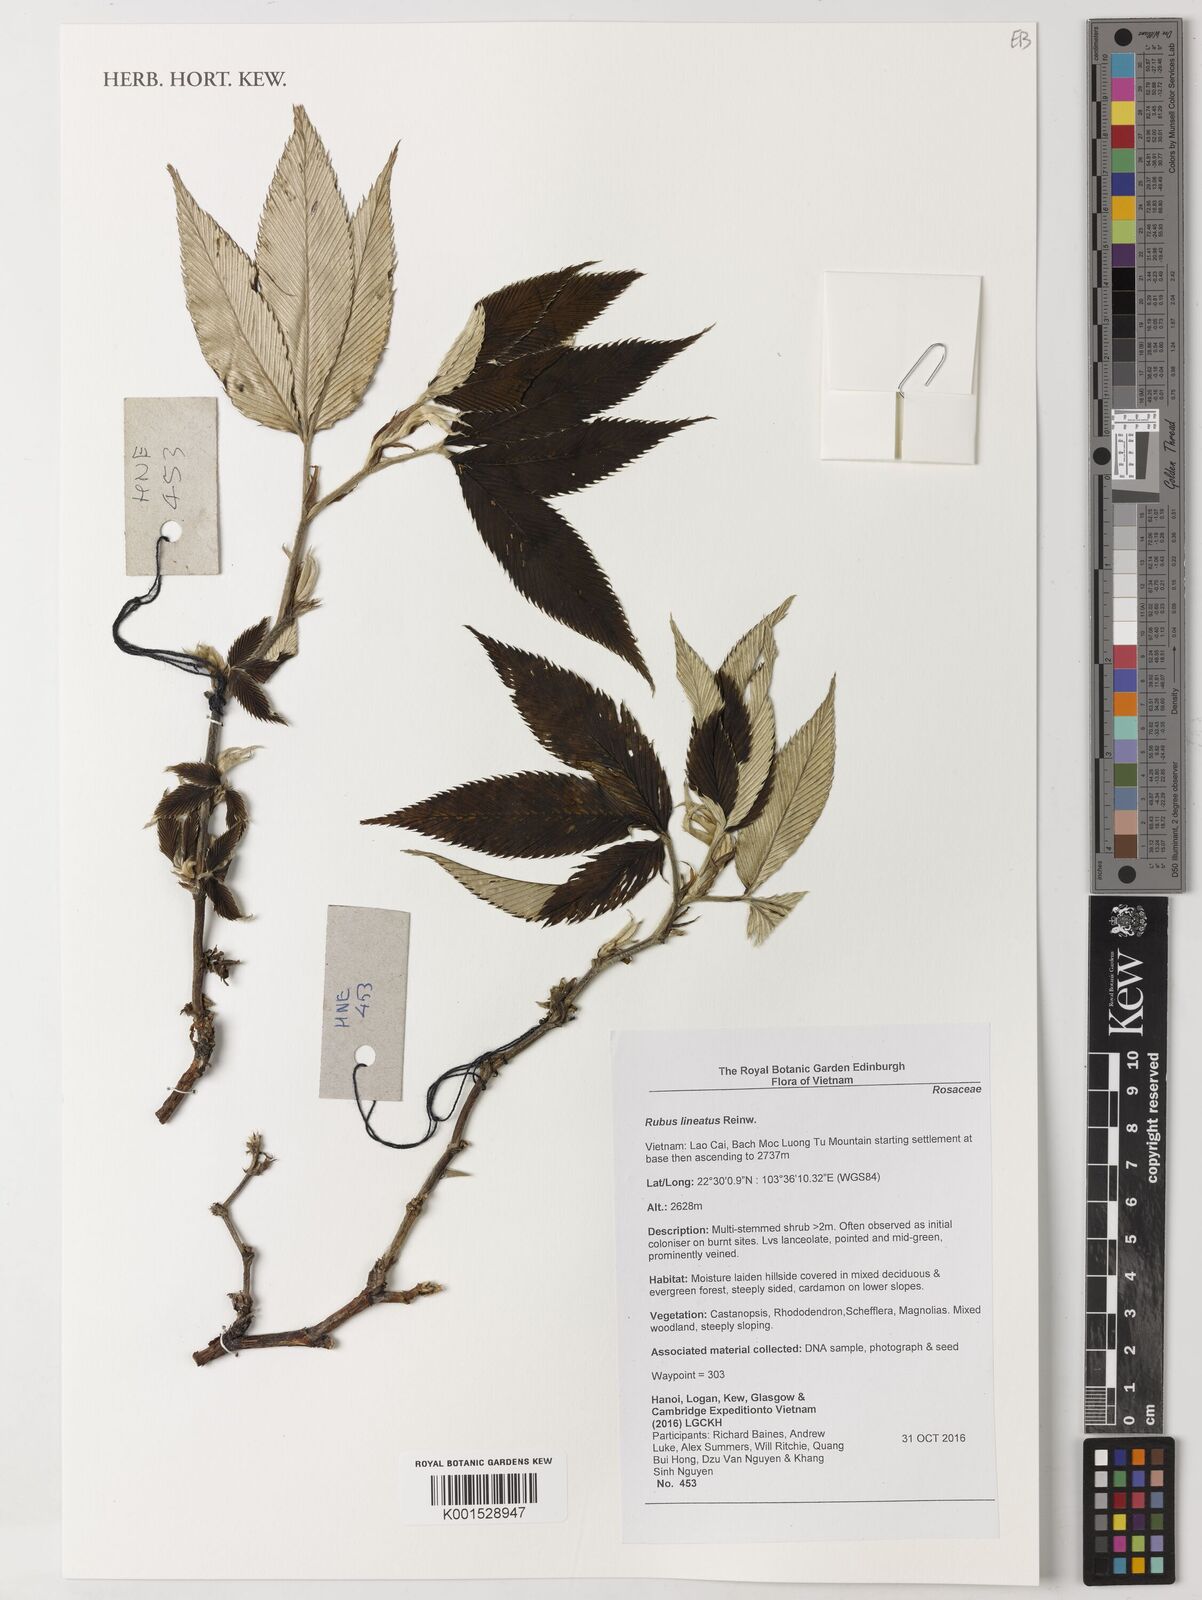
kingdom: Plantae
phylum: Tracheophyta
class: Magnoliopsida
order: Rosales
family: Rosaceae
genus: Rubus
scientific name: Rubus lineatus
